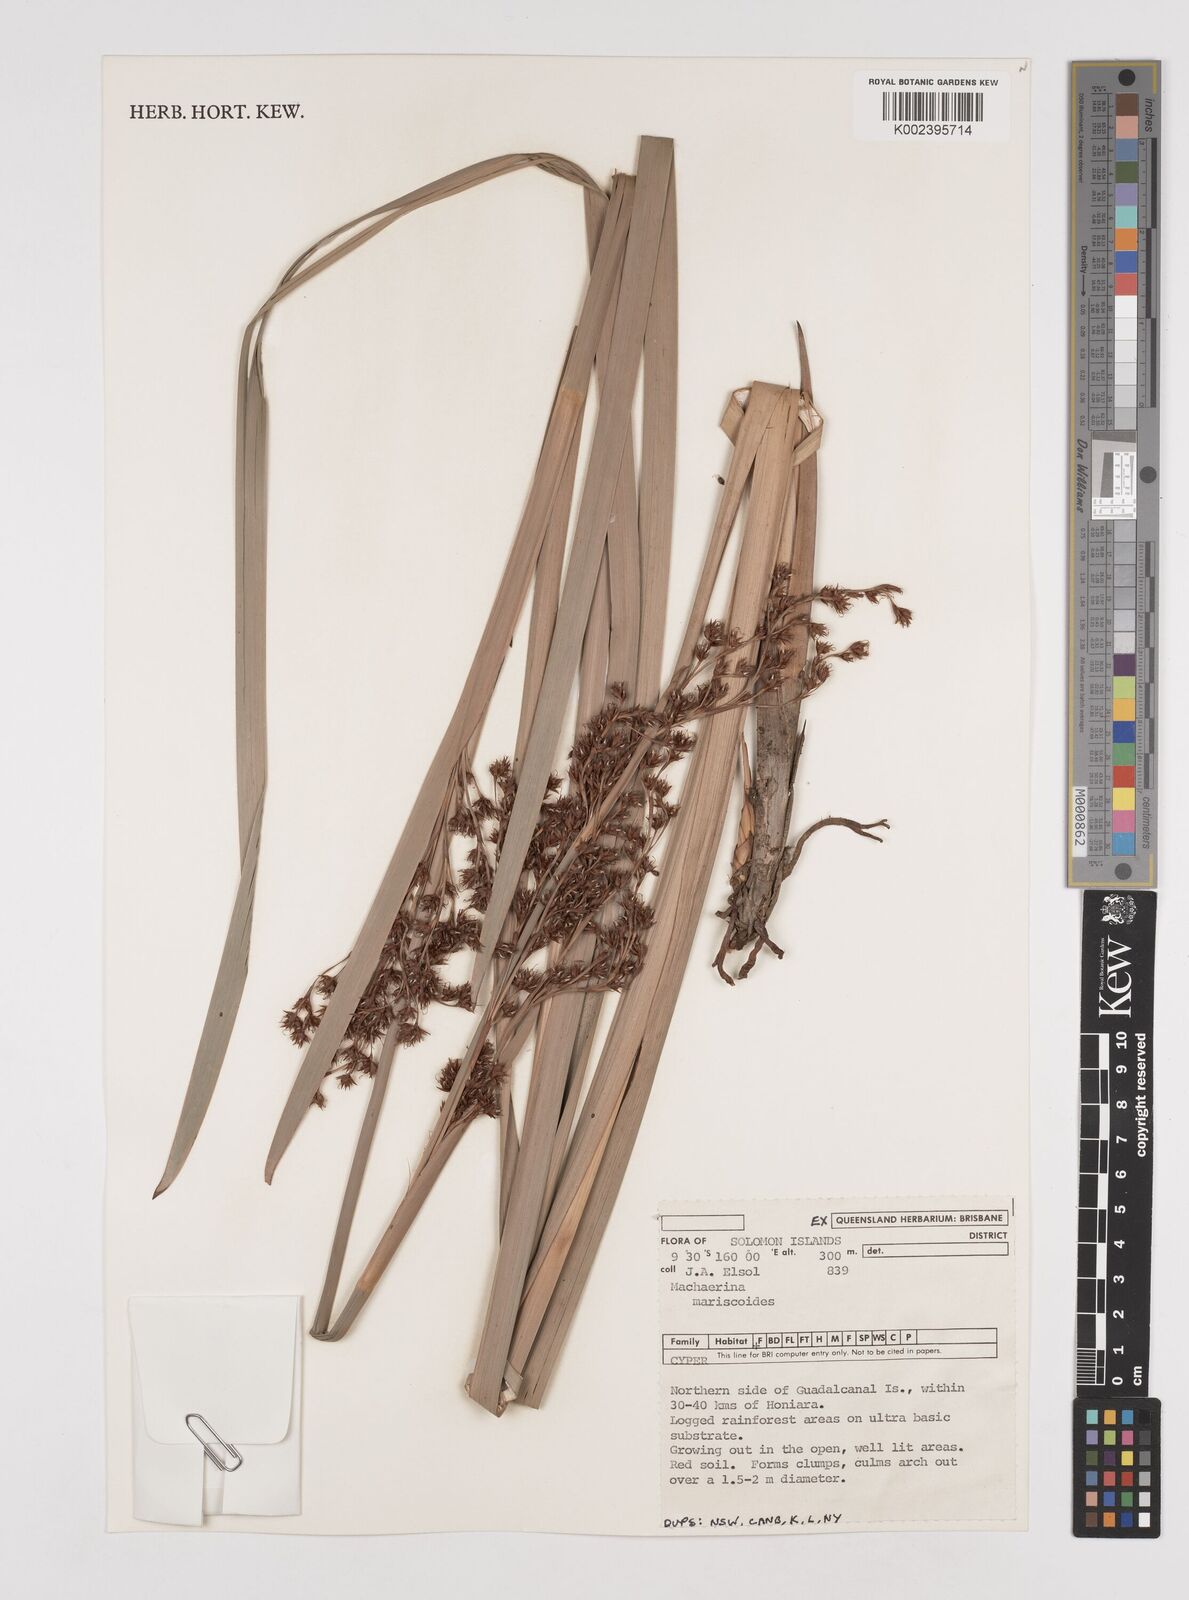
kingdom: Plantae
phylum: Tracheophyta
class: Liliopsida
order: Poales
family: Cyperaceae
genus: Machaerina
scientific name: Machaerina mariscoides
